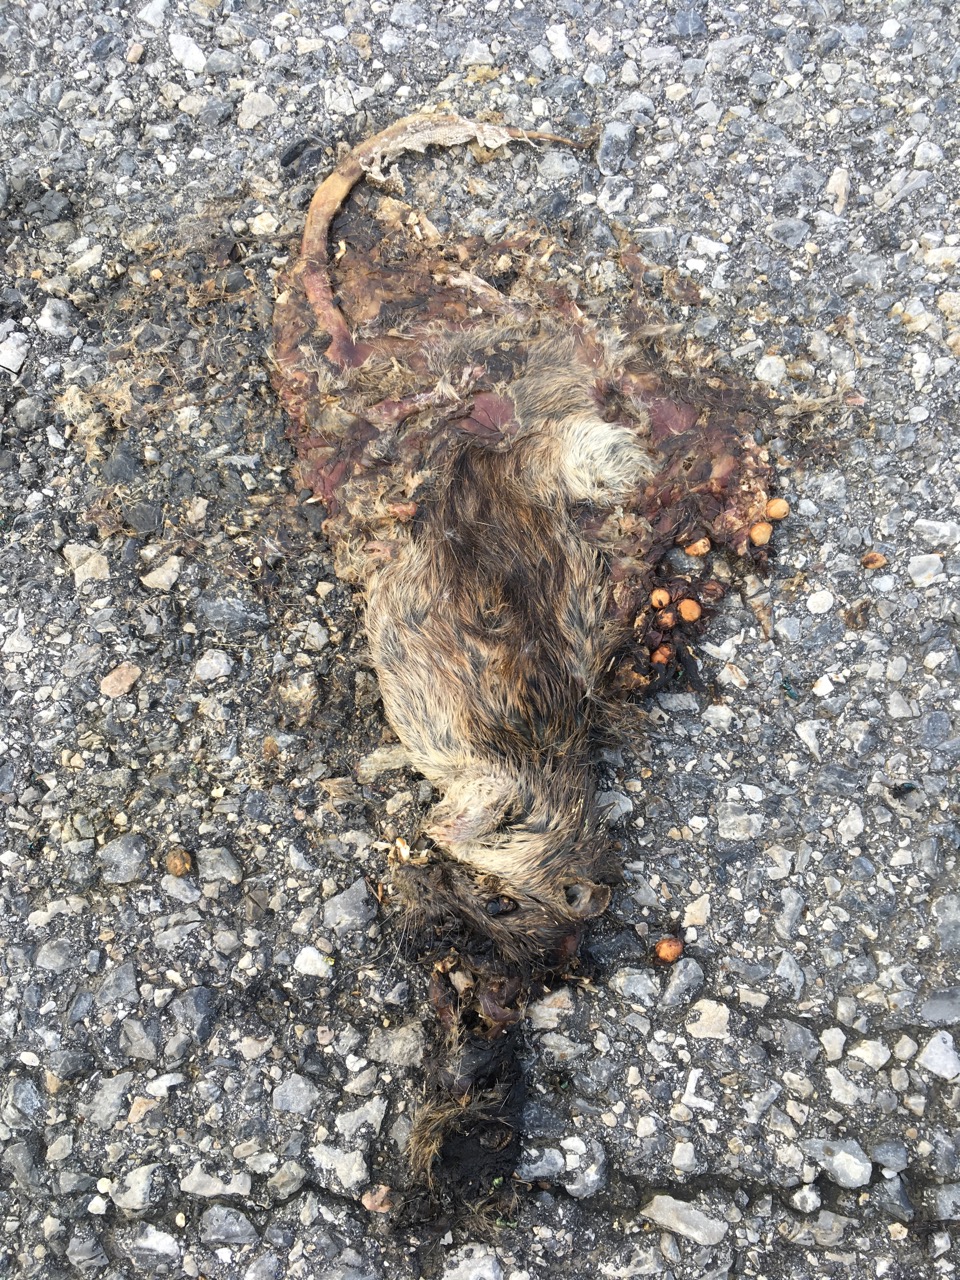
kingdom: Animalia
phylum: Chordata
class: Mammalia
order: Rodentia
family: Muridae
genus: Rattus
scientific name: Rattus
